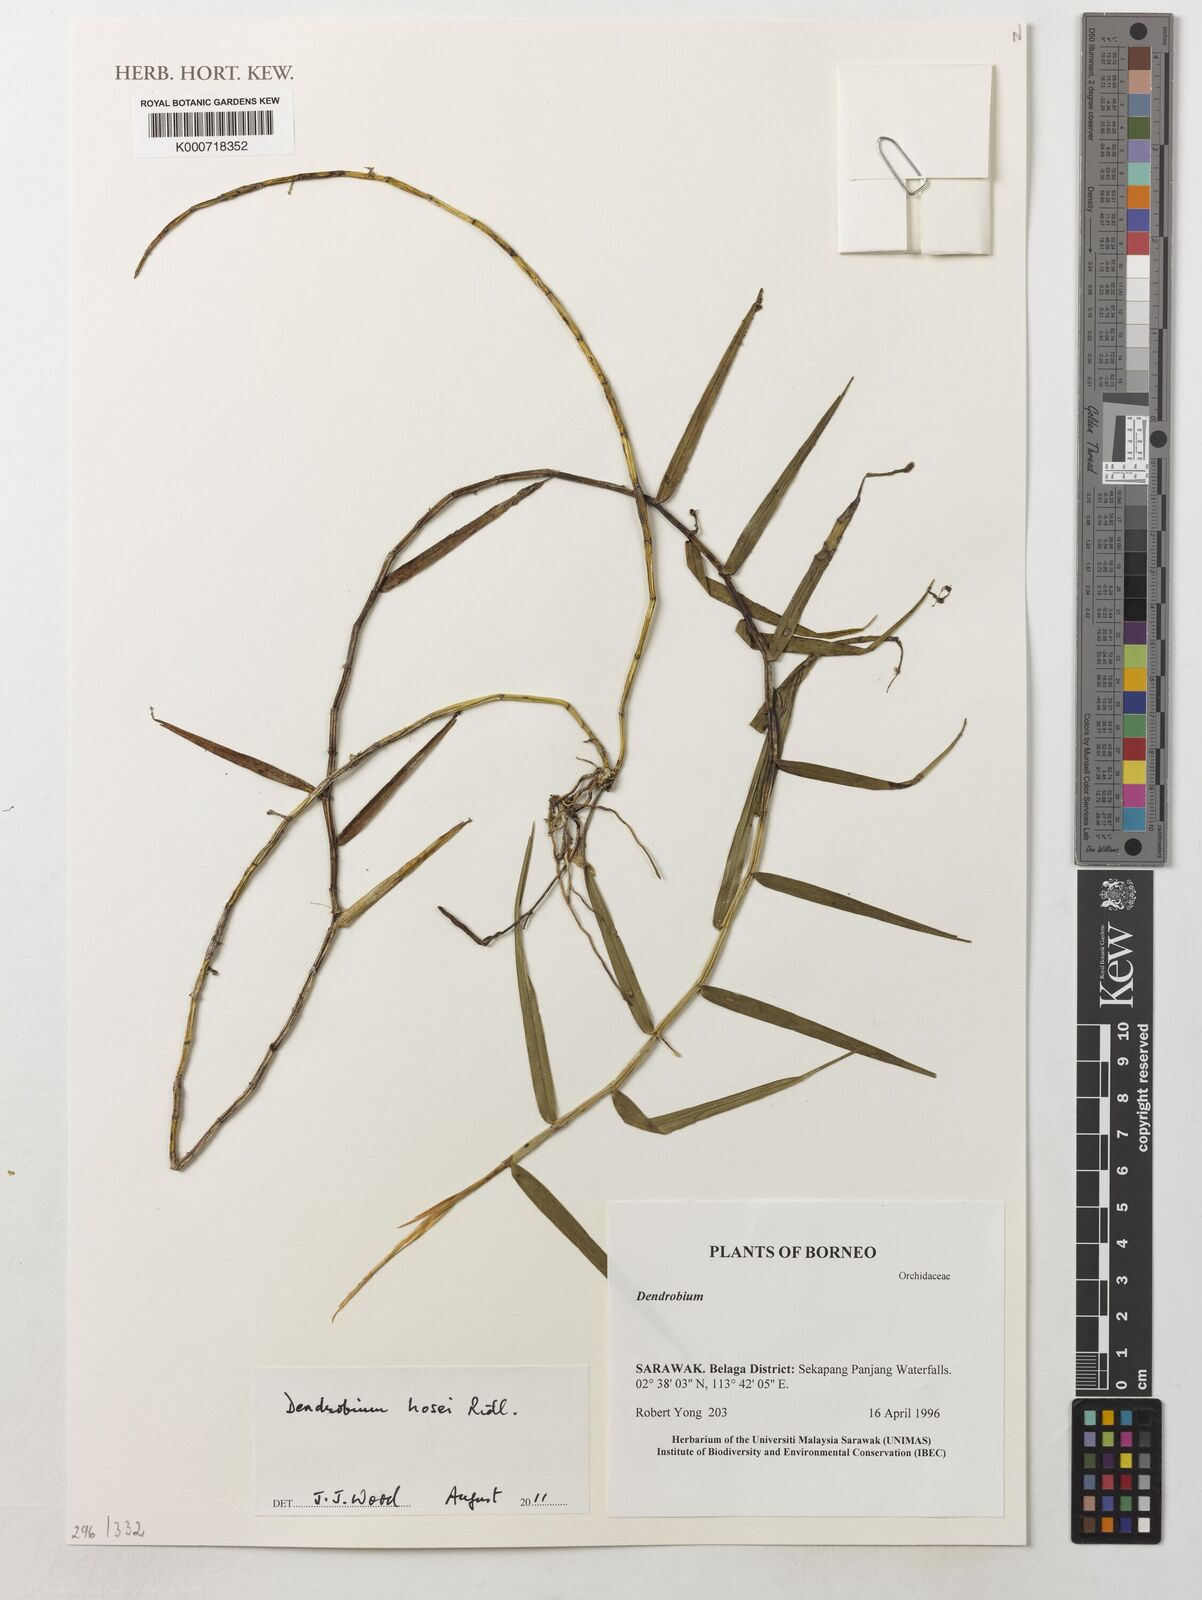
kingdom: Plantae
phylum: Tracheophyta
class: Liliopsida
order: Asparagales
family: Orchidaceae
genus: Dendrobium
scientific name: Dendrobium hosei
